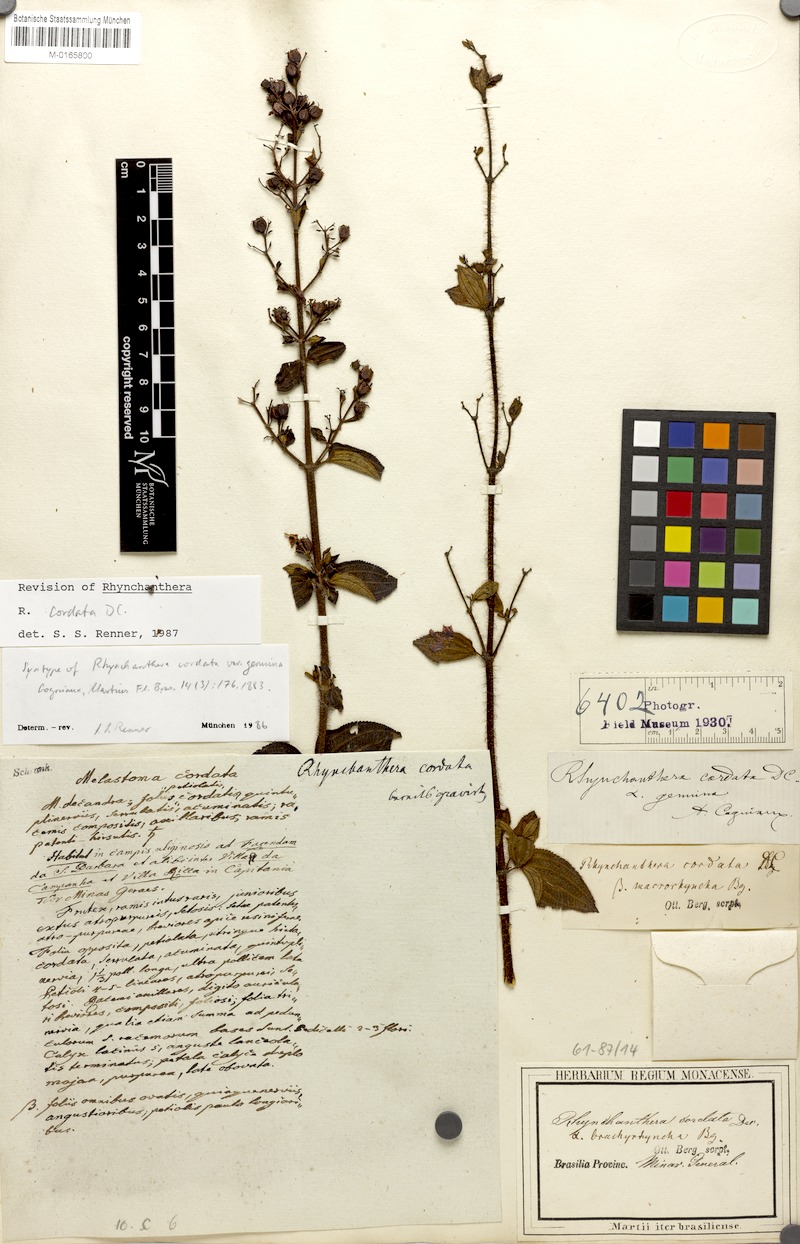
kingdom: Plantae
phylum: Tracheophyta
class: Magnoliopsida
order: Myrtales
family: Melastomataceae
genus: Rhynchanthera
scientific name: Rhynchanthera cordata
